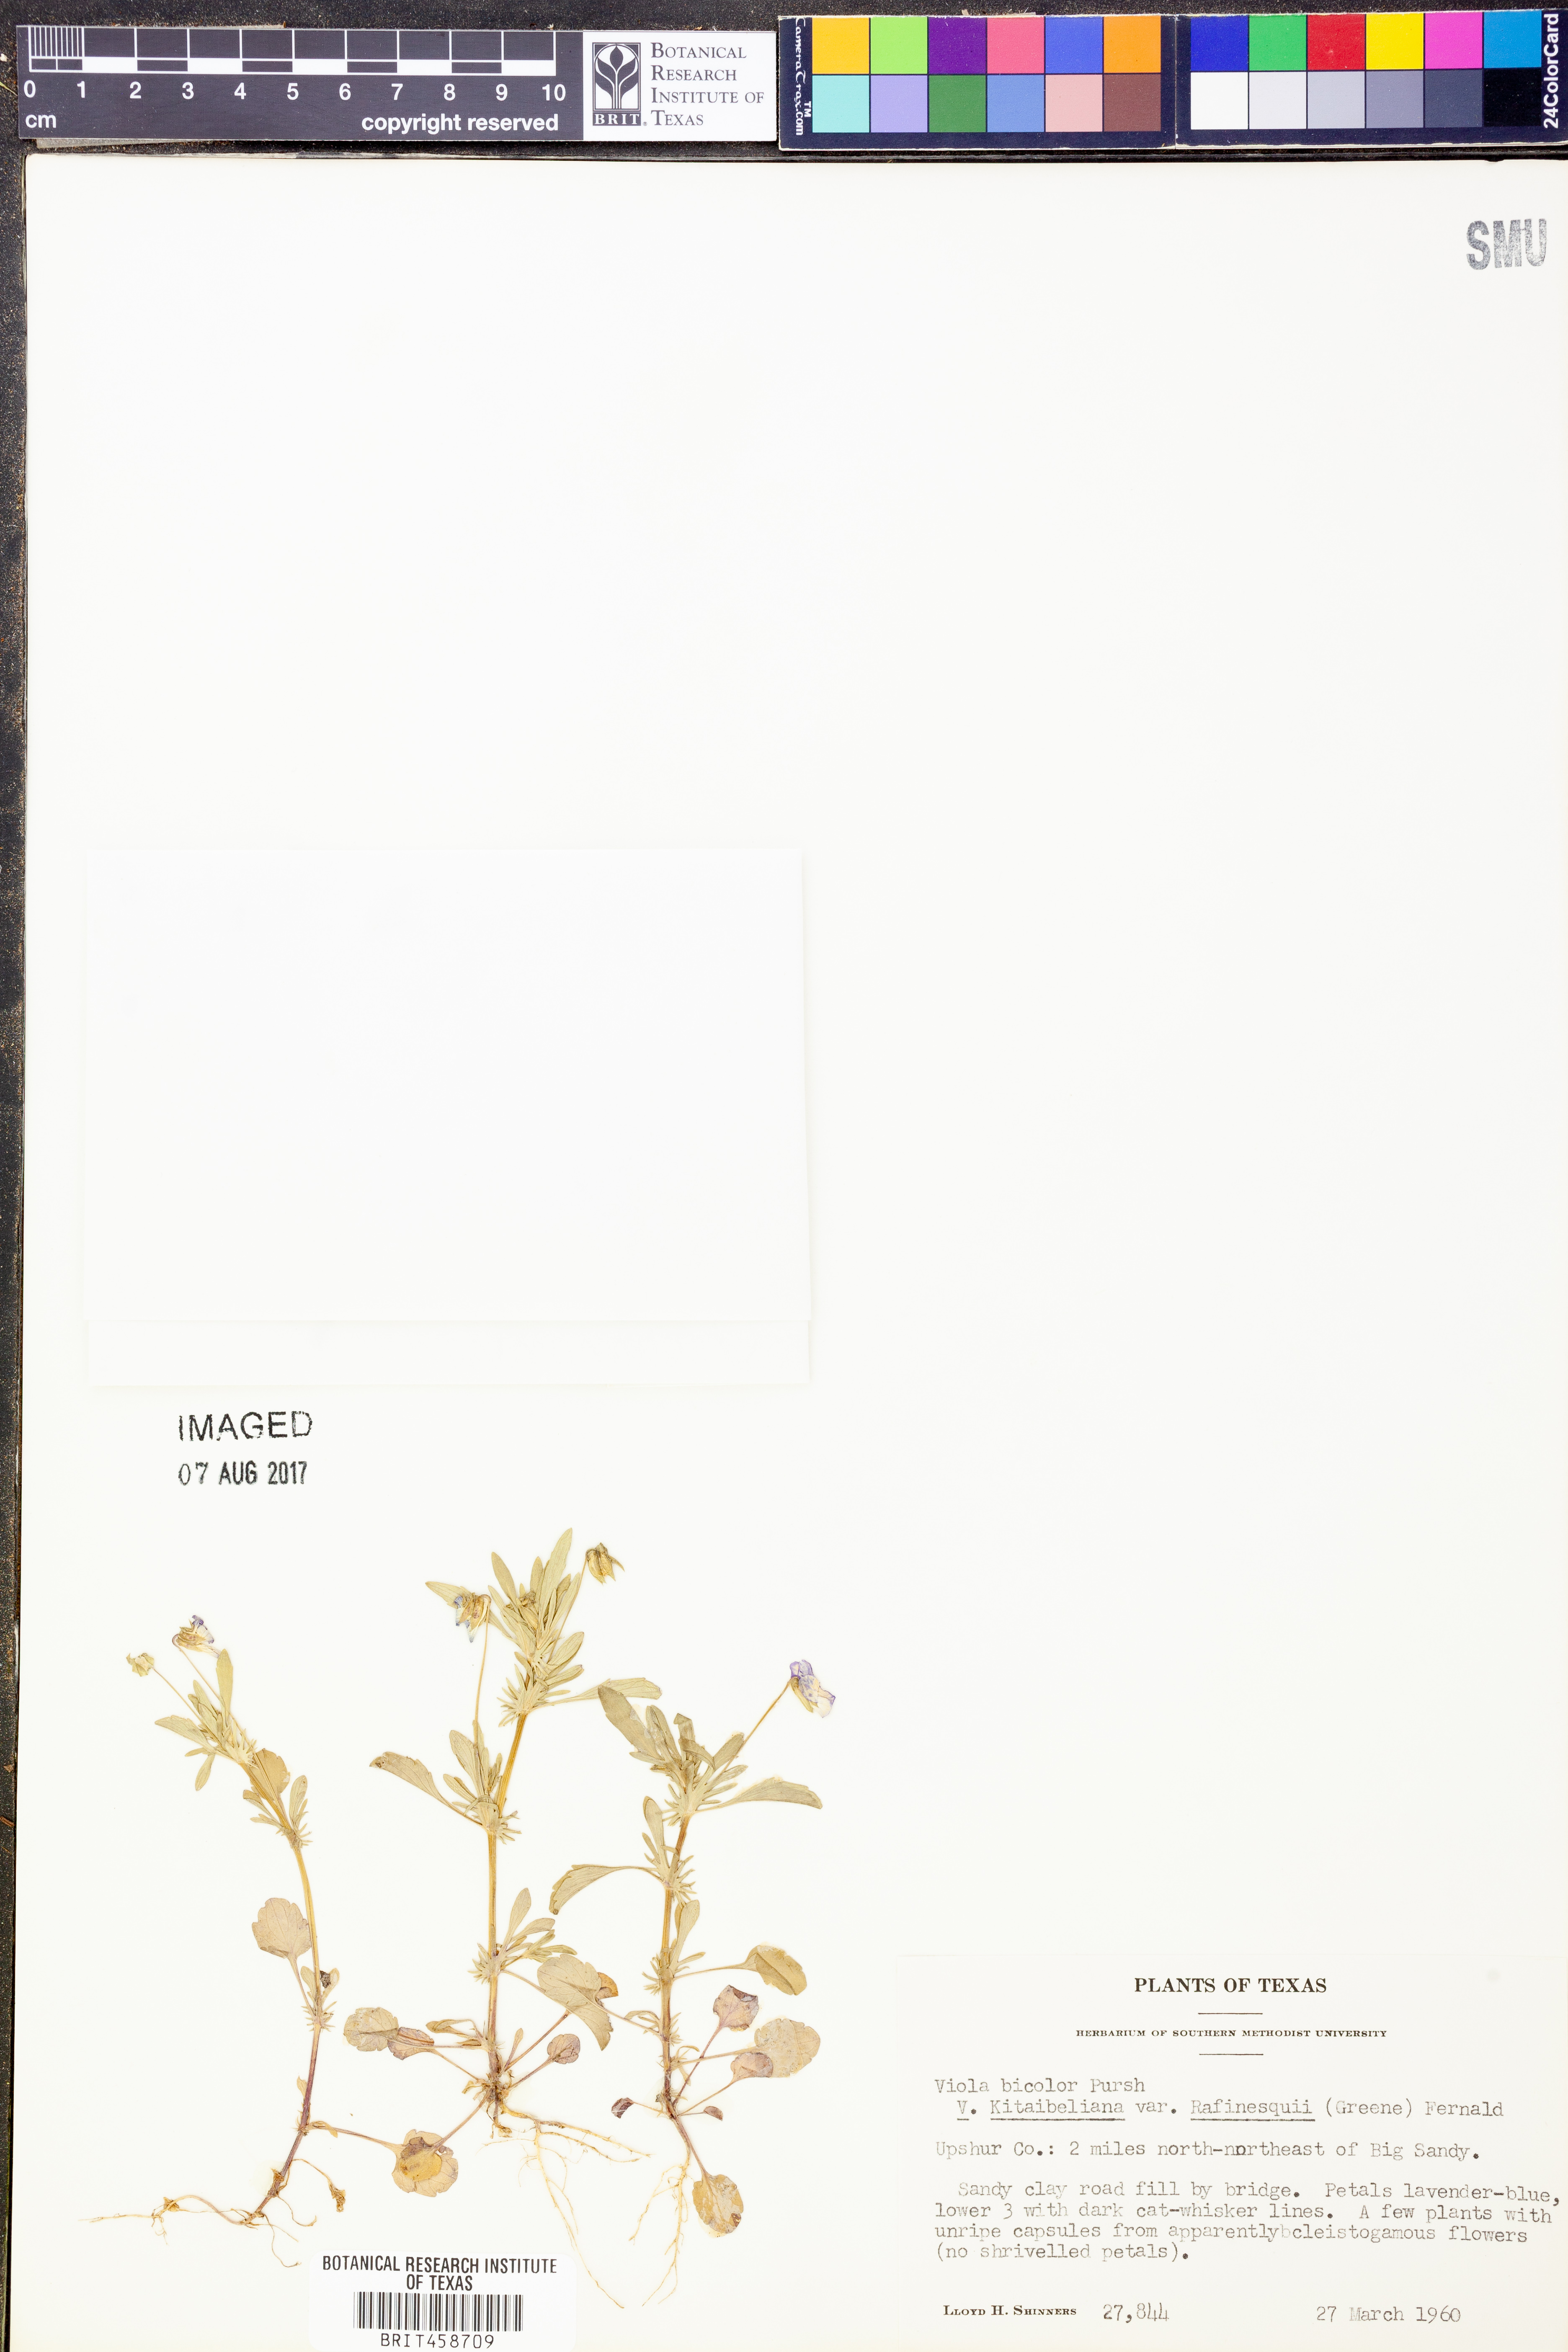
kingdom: Plantae
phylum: Tracheophyta
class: Magnoliopsida
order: Malpighiales
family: Violaceae
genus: Viola
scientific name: Viola rafinesquei
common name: American field pansy
